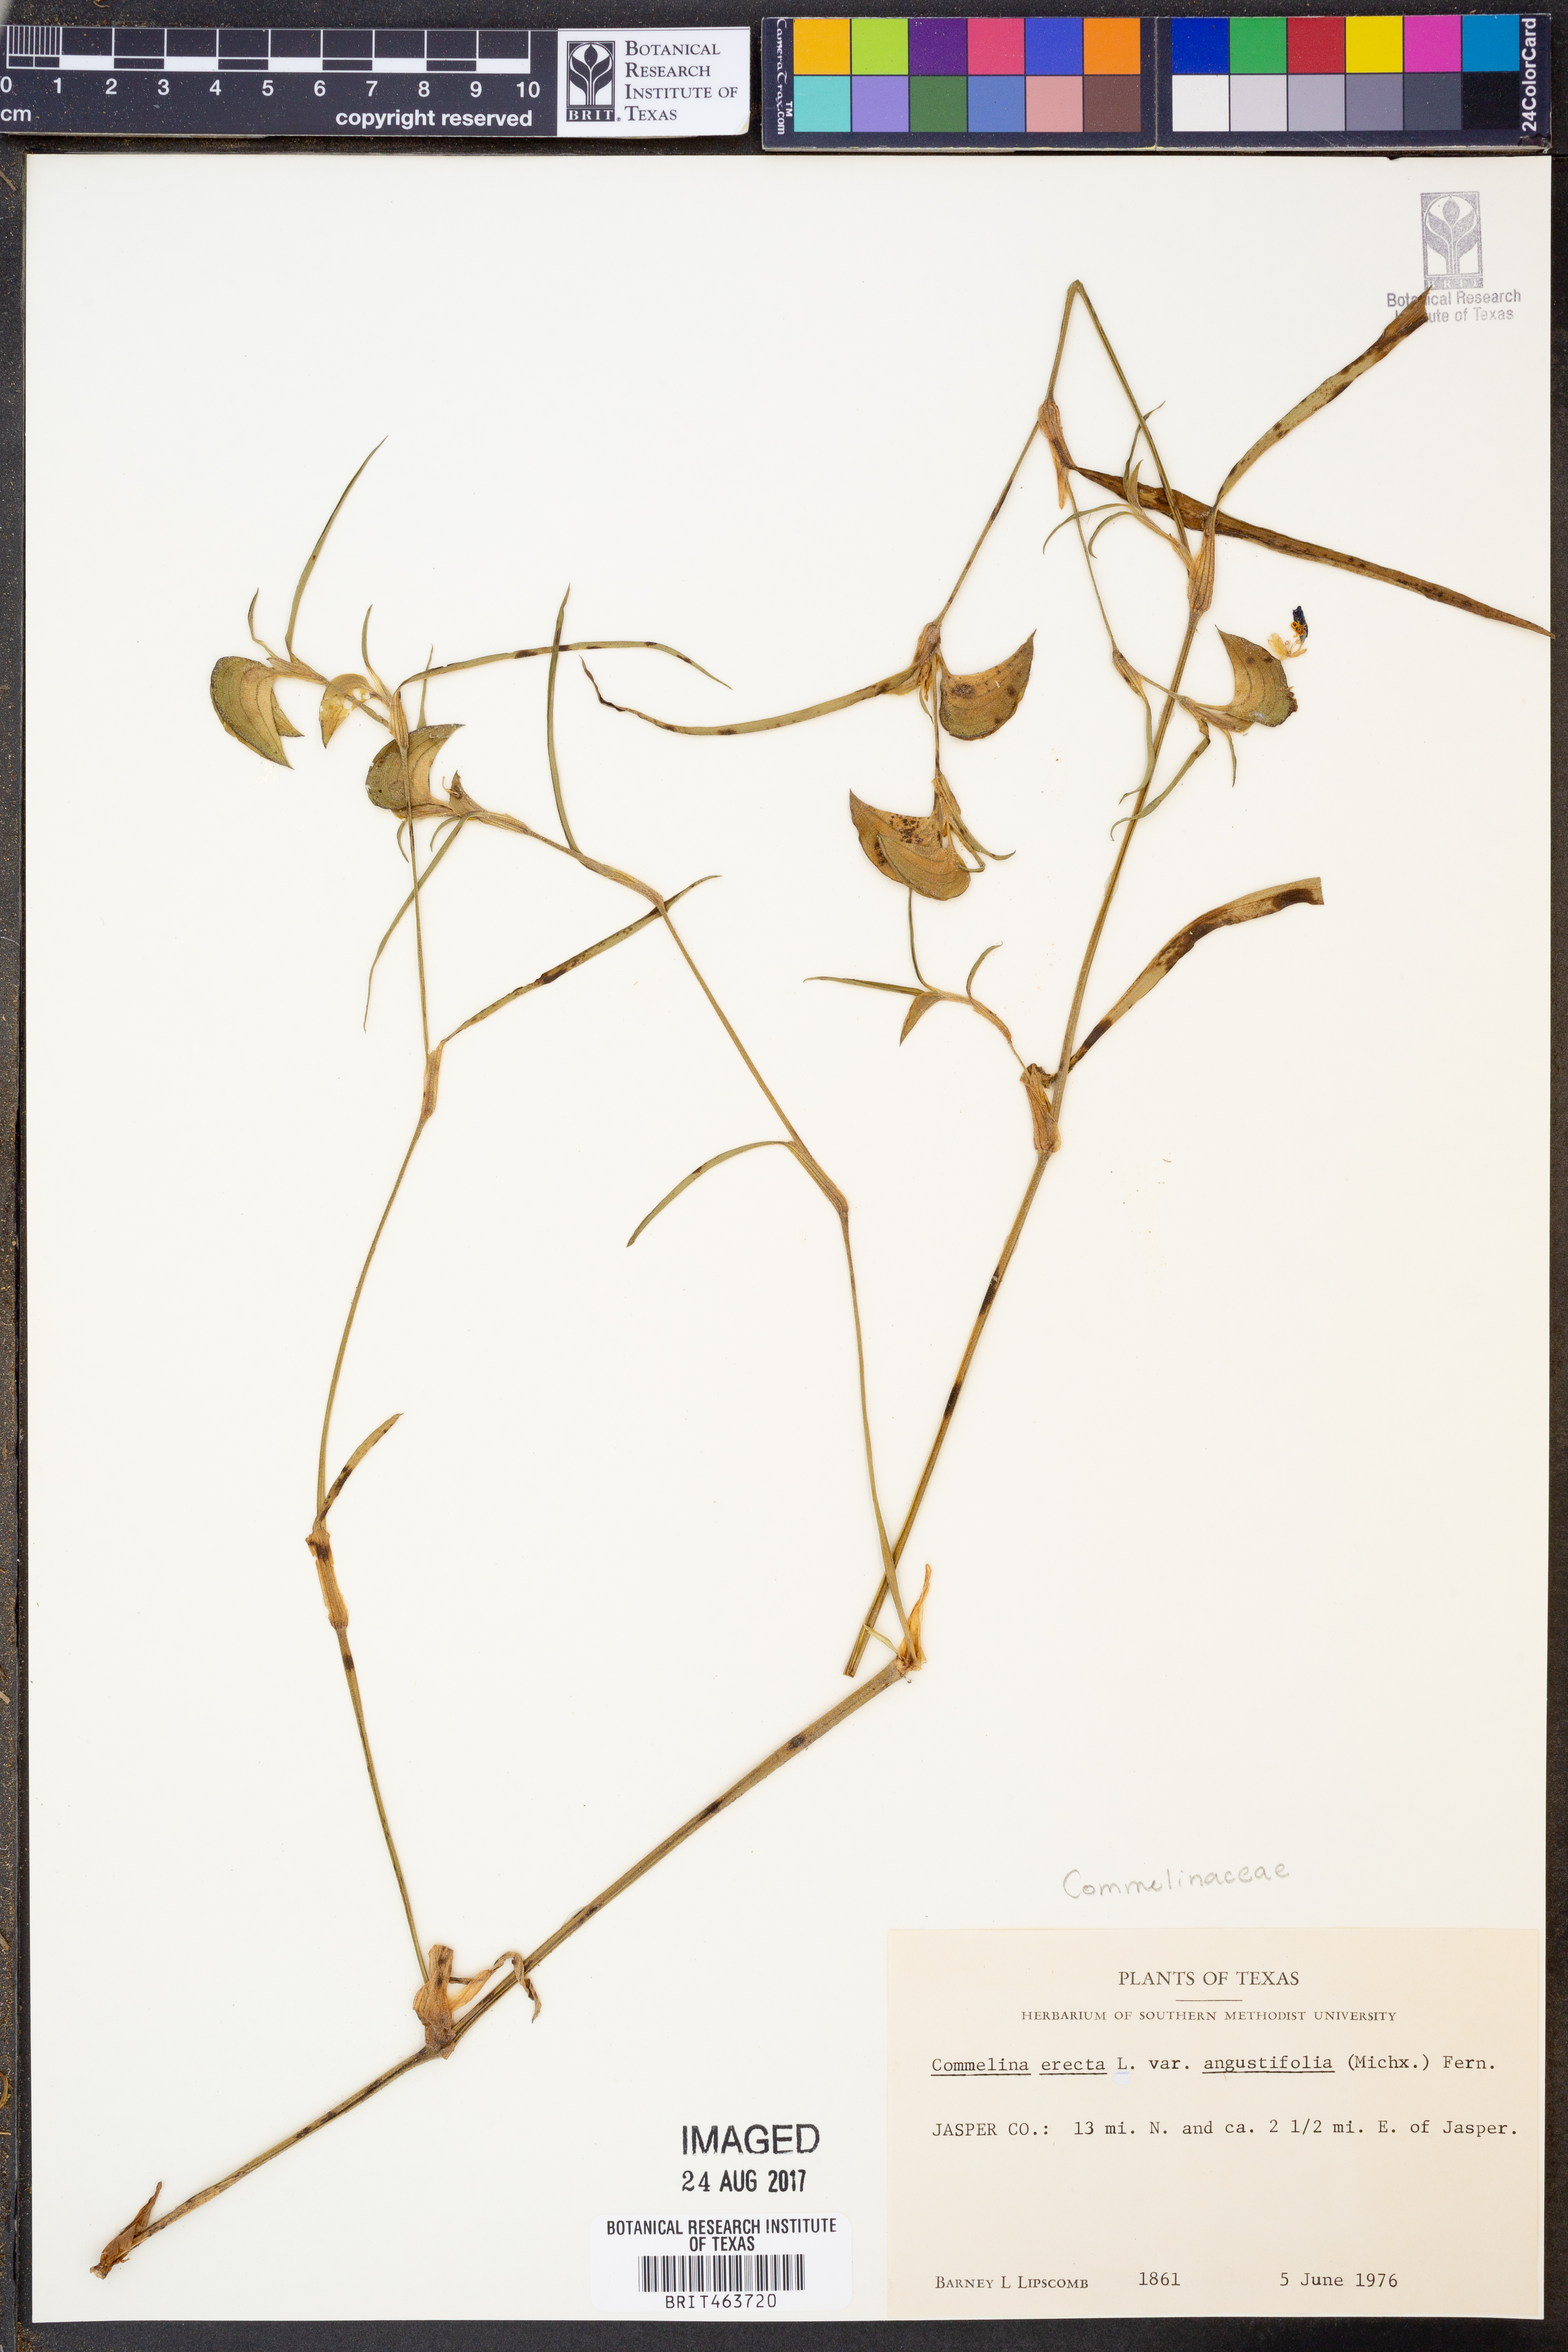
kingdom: Plantae
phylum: Tracheophyta
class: Liliopsida
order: Commelinales
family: Commelinaceae
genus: Commelina
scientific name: Commelina erecta
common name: Blousel blommetjie
